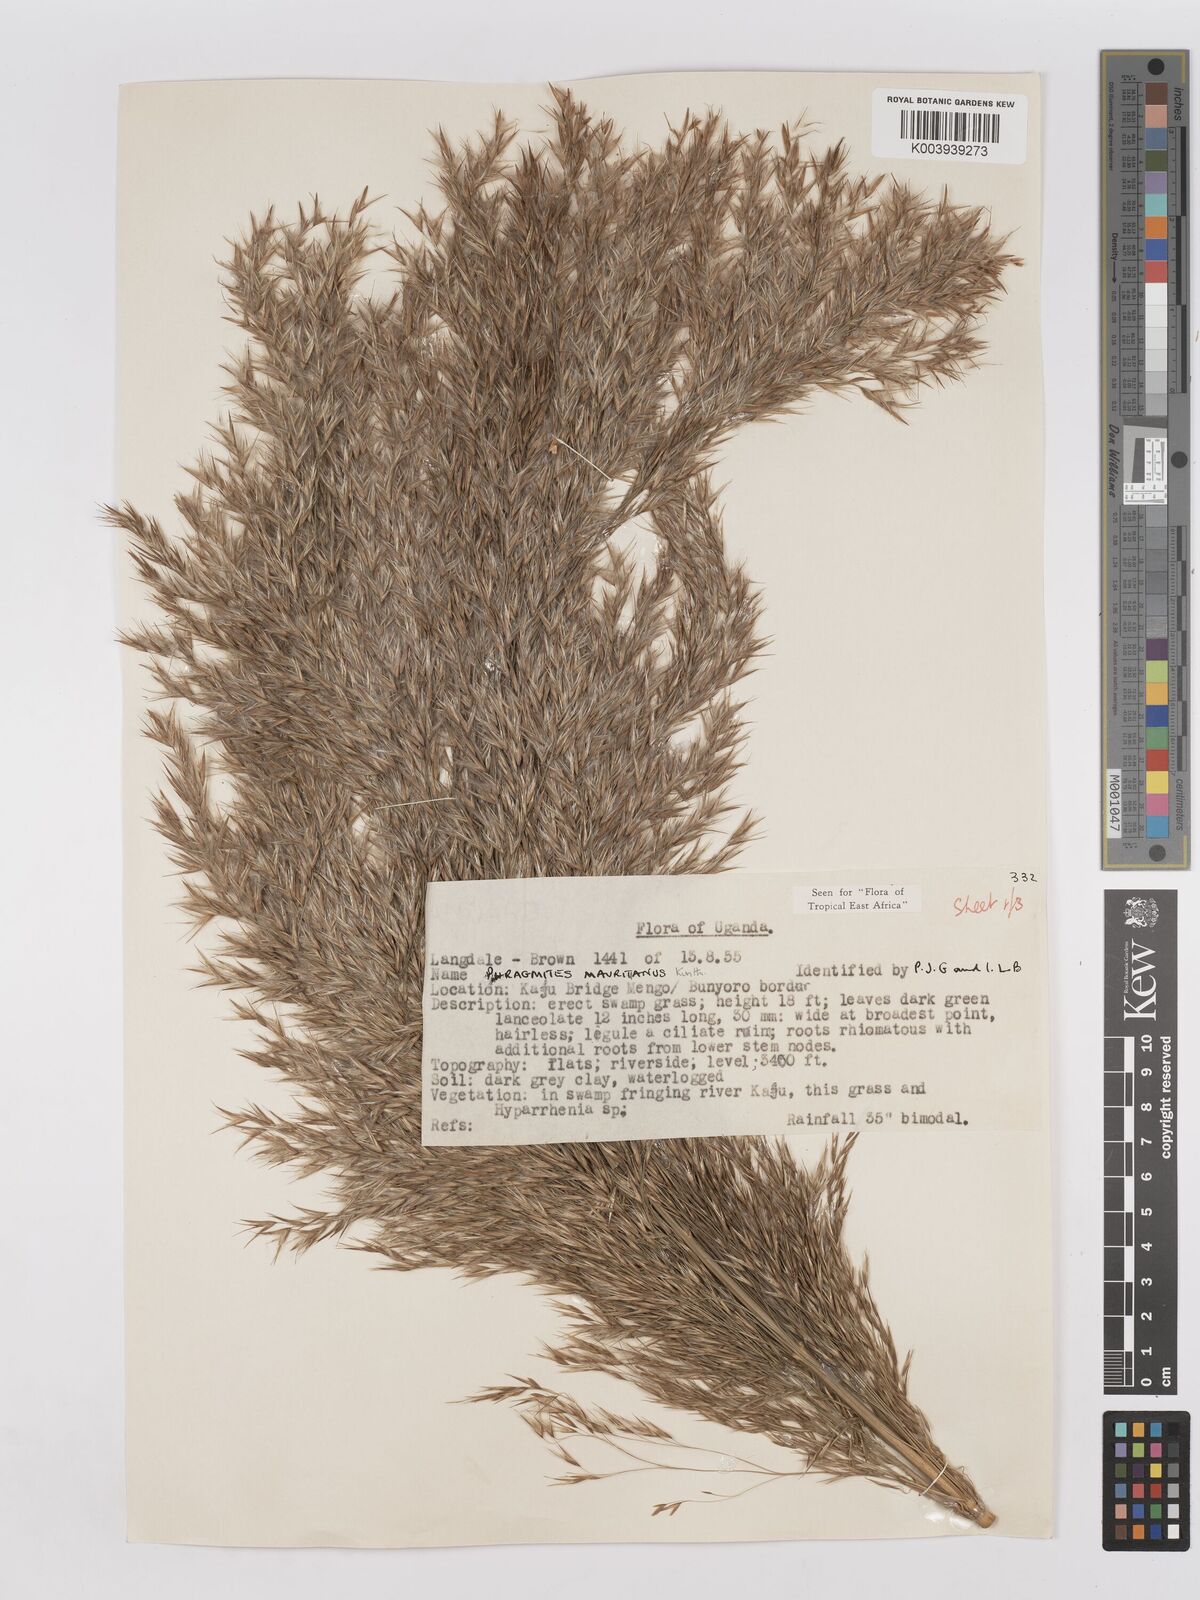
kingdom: Plantae
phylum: Tracheophyta
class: Liliopsida
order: Poales
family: Poaceae
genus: Phragmites
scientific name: Phragmites mauritianus
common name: Reed grass
